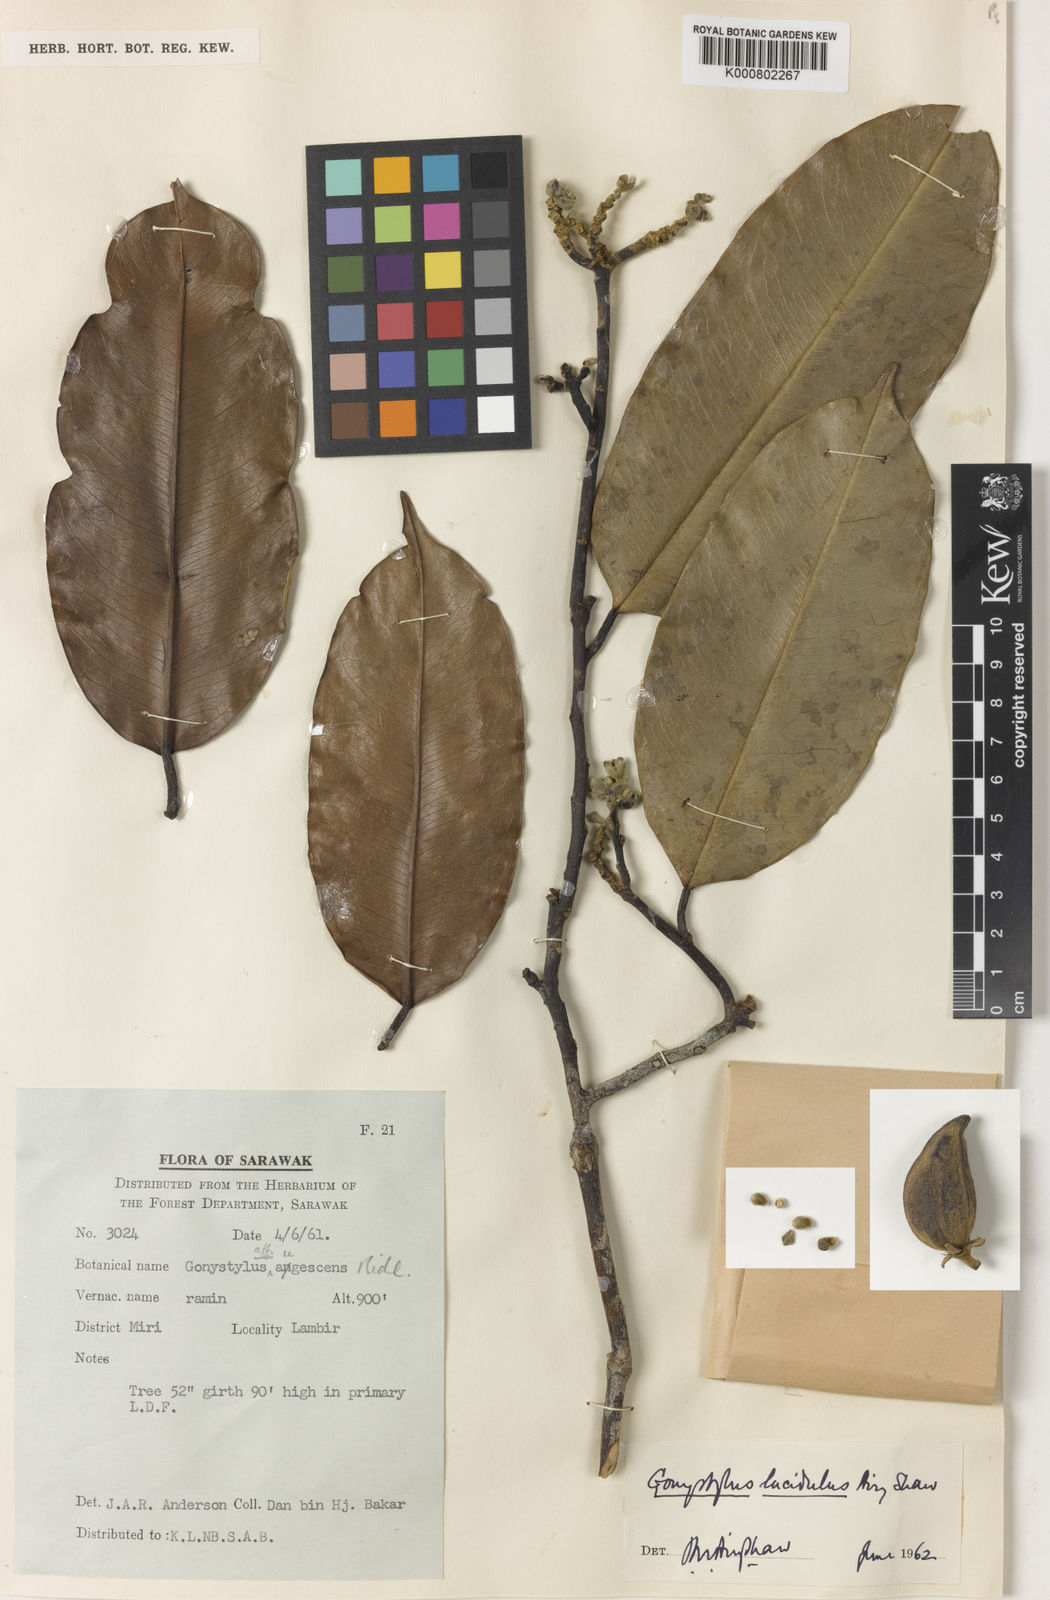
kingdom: Plantae
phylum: Tracheophyta
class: Magnoliopsida
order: Malvales
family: Thymelaeaceae
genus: Gonystylus
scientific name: Gonystylus lucidulus
